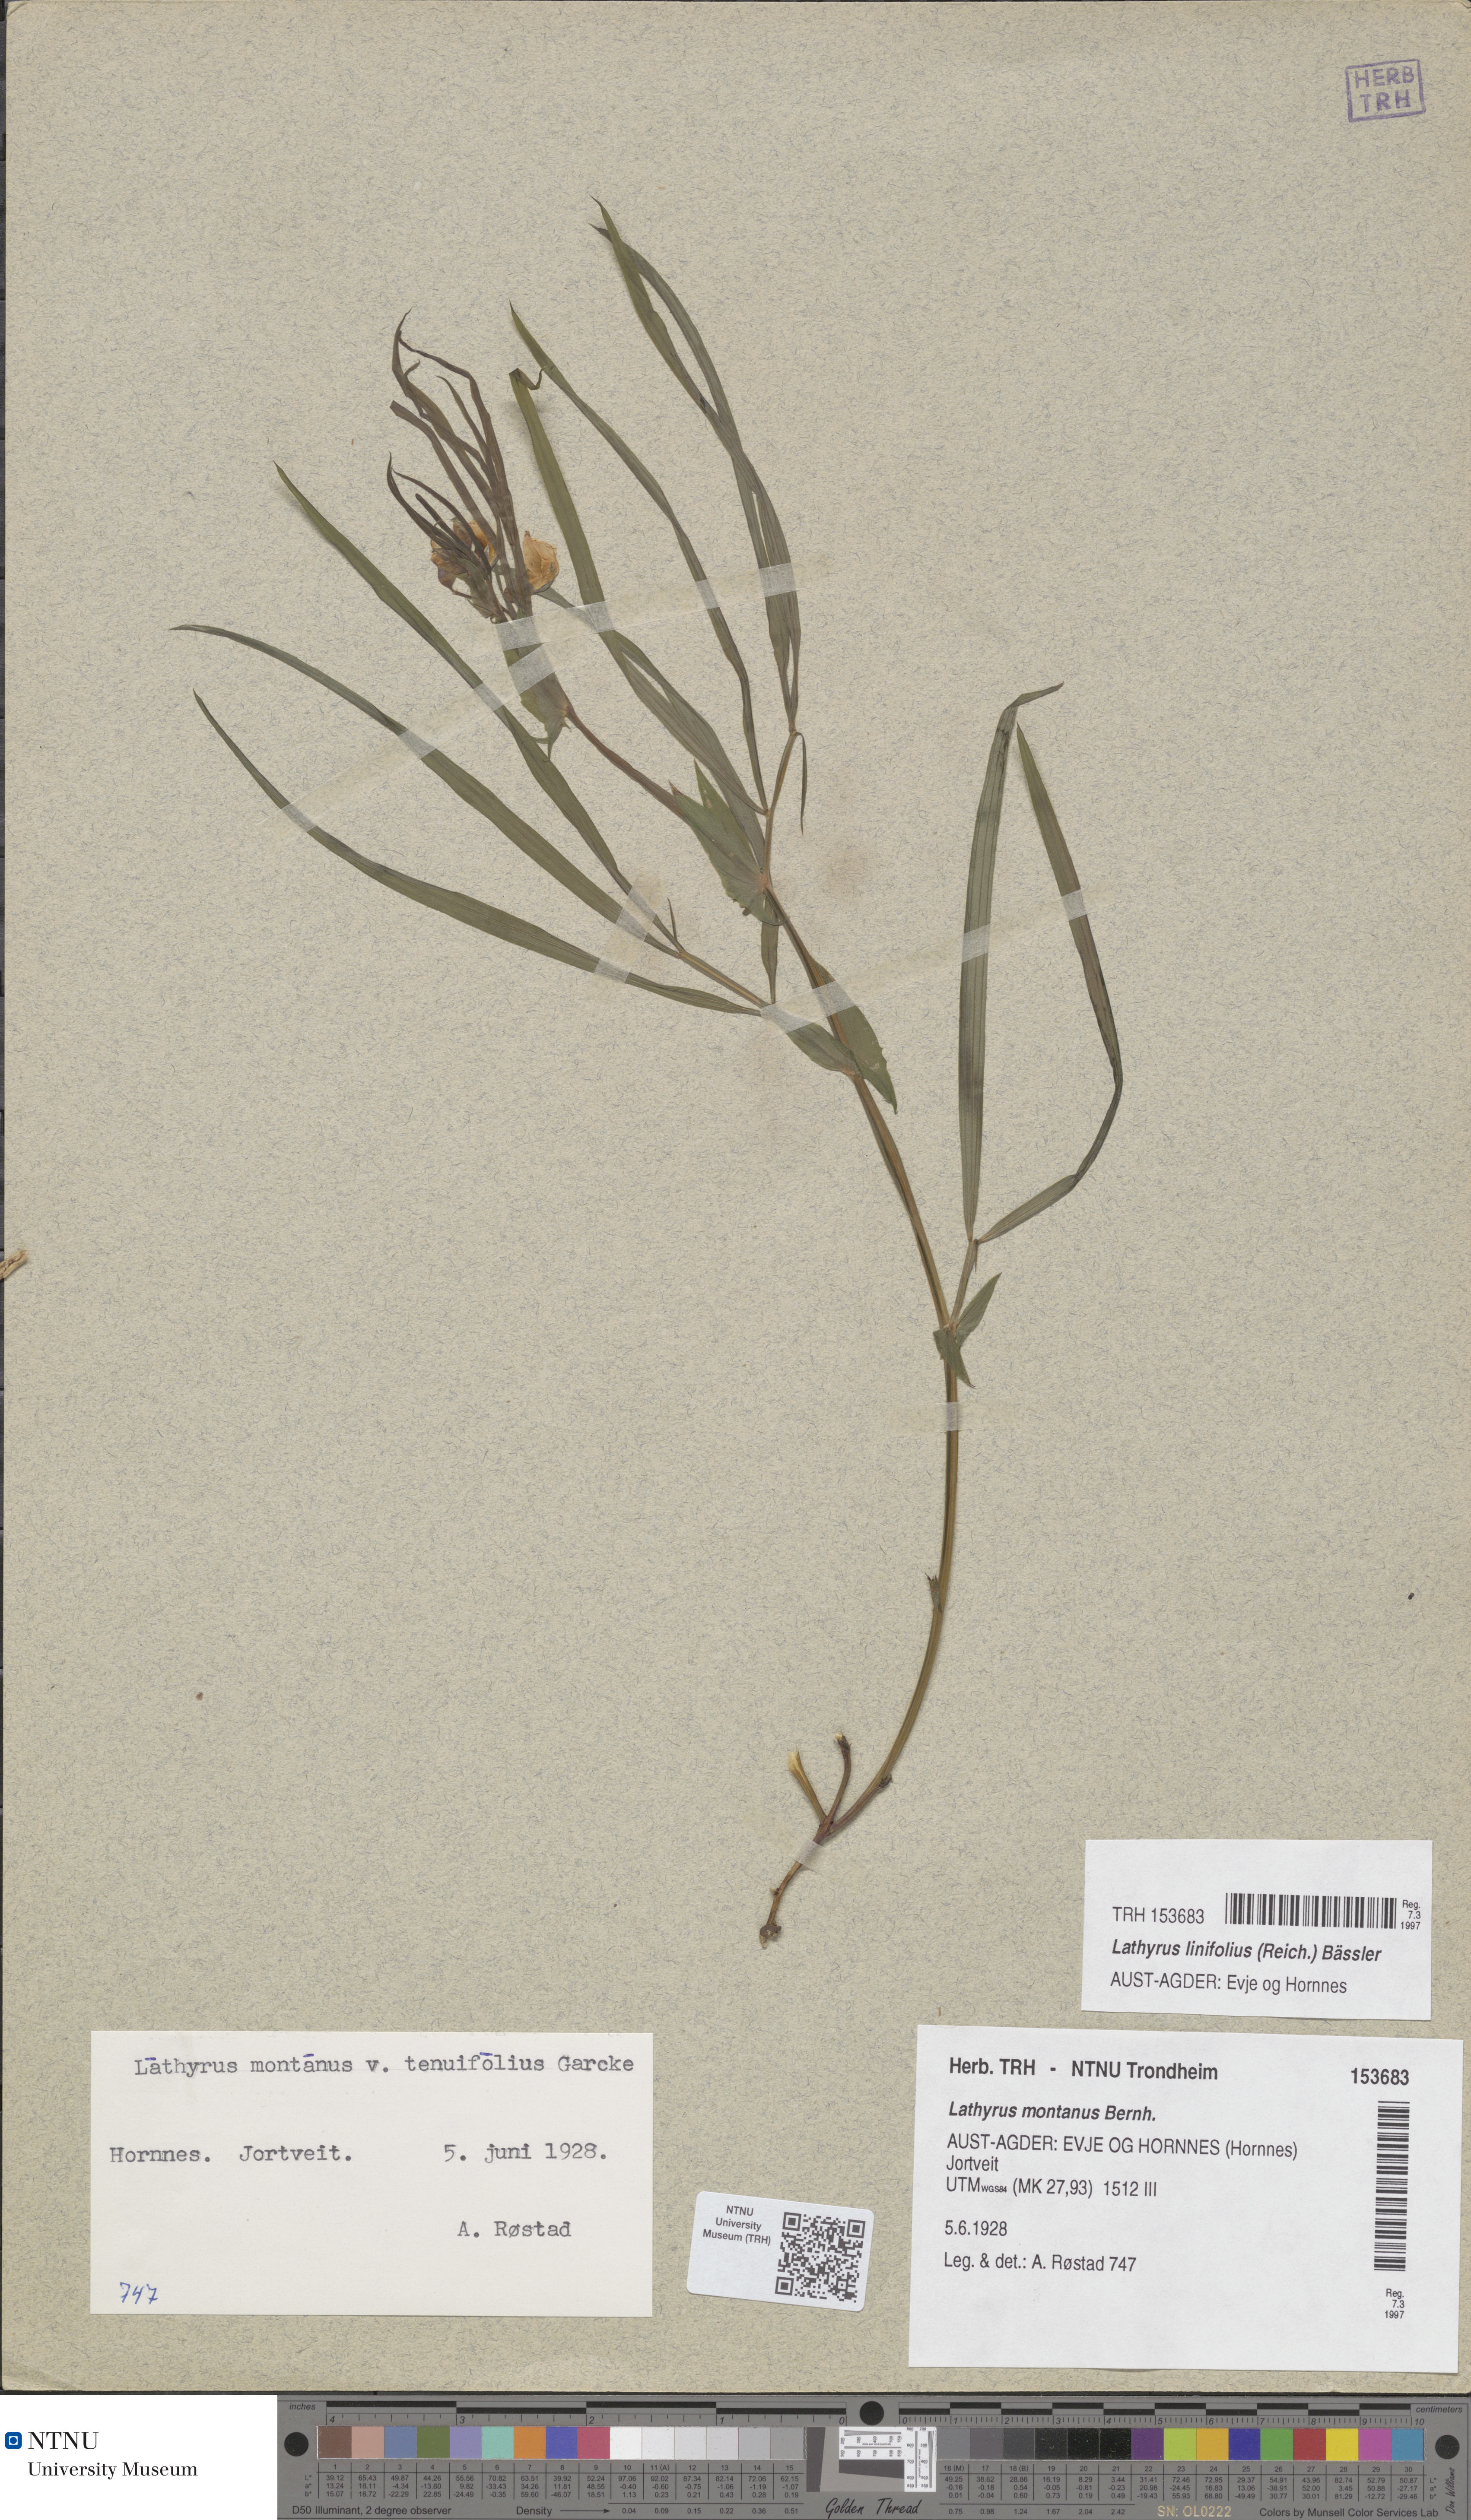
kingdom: Plantae
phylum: Tracheophyta
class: Magnoliopsida
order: Fabales
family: Fabaceae
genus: Lathyrus
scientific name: Lathyrus linifolius
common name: Bitter-vetch
